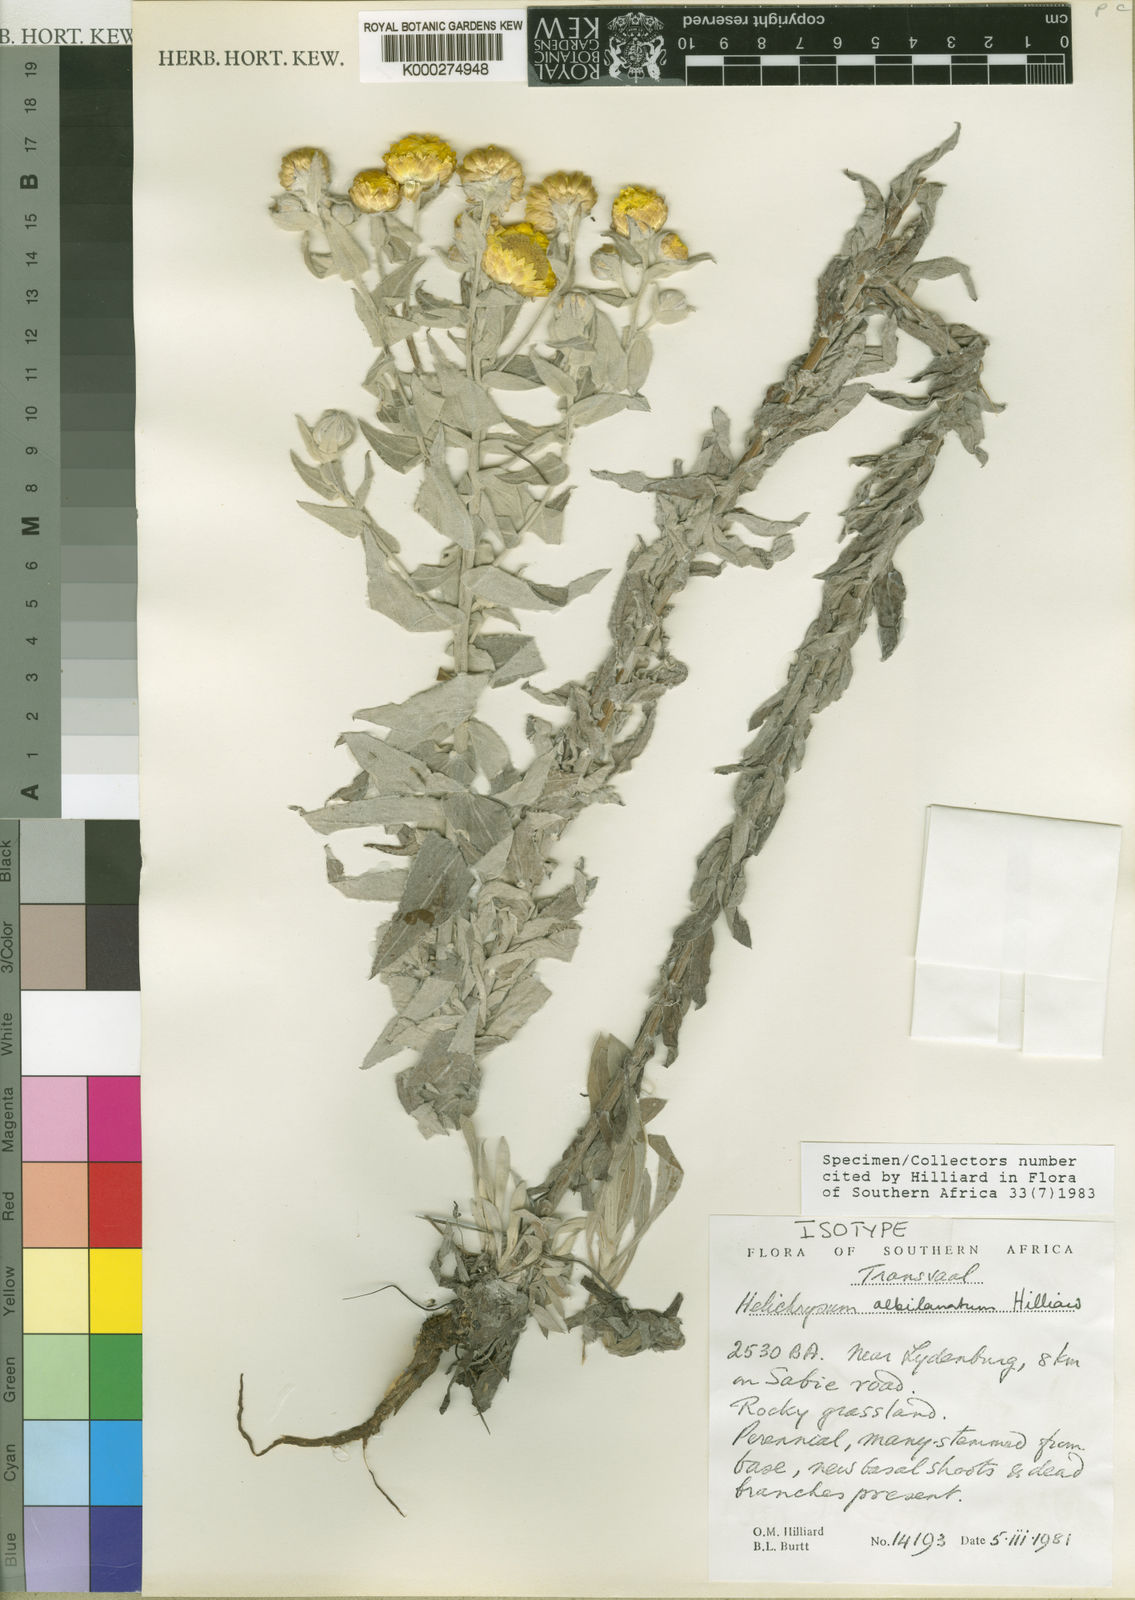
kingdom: Plantae
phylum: Tracheophyta
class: Magnoliopsida
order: Asterales
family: Asteraceae
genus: Helichrysum
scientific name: Helichrysum albilanatum
